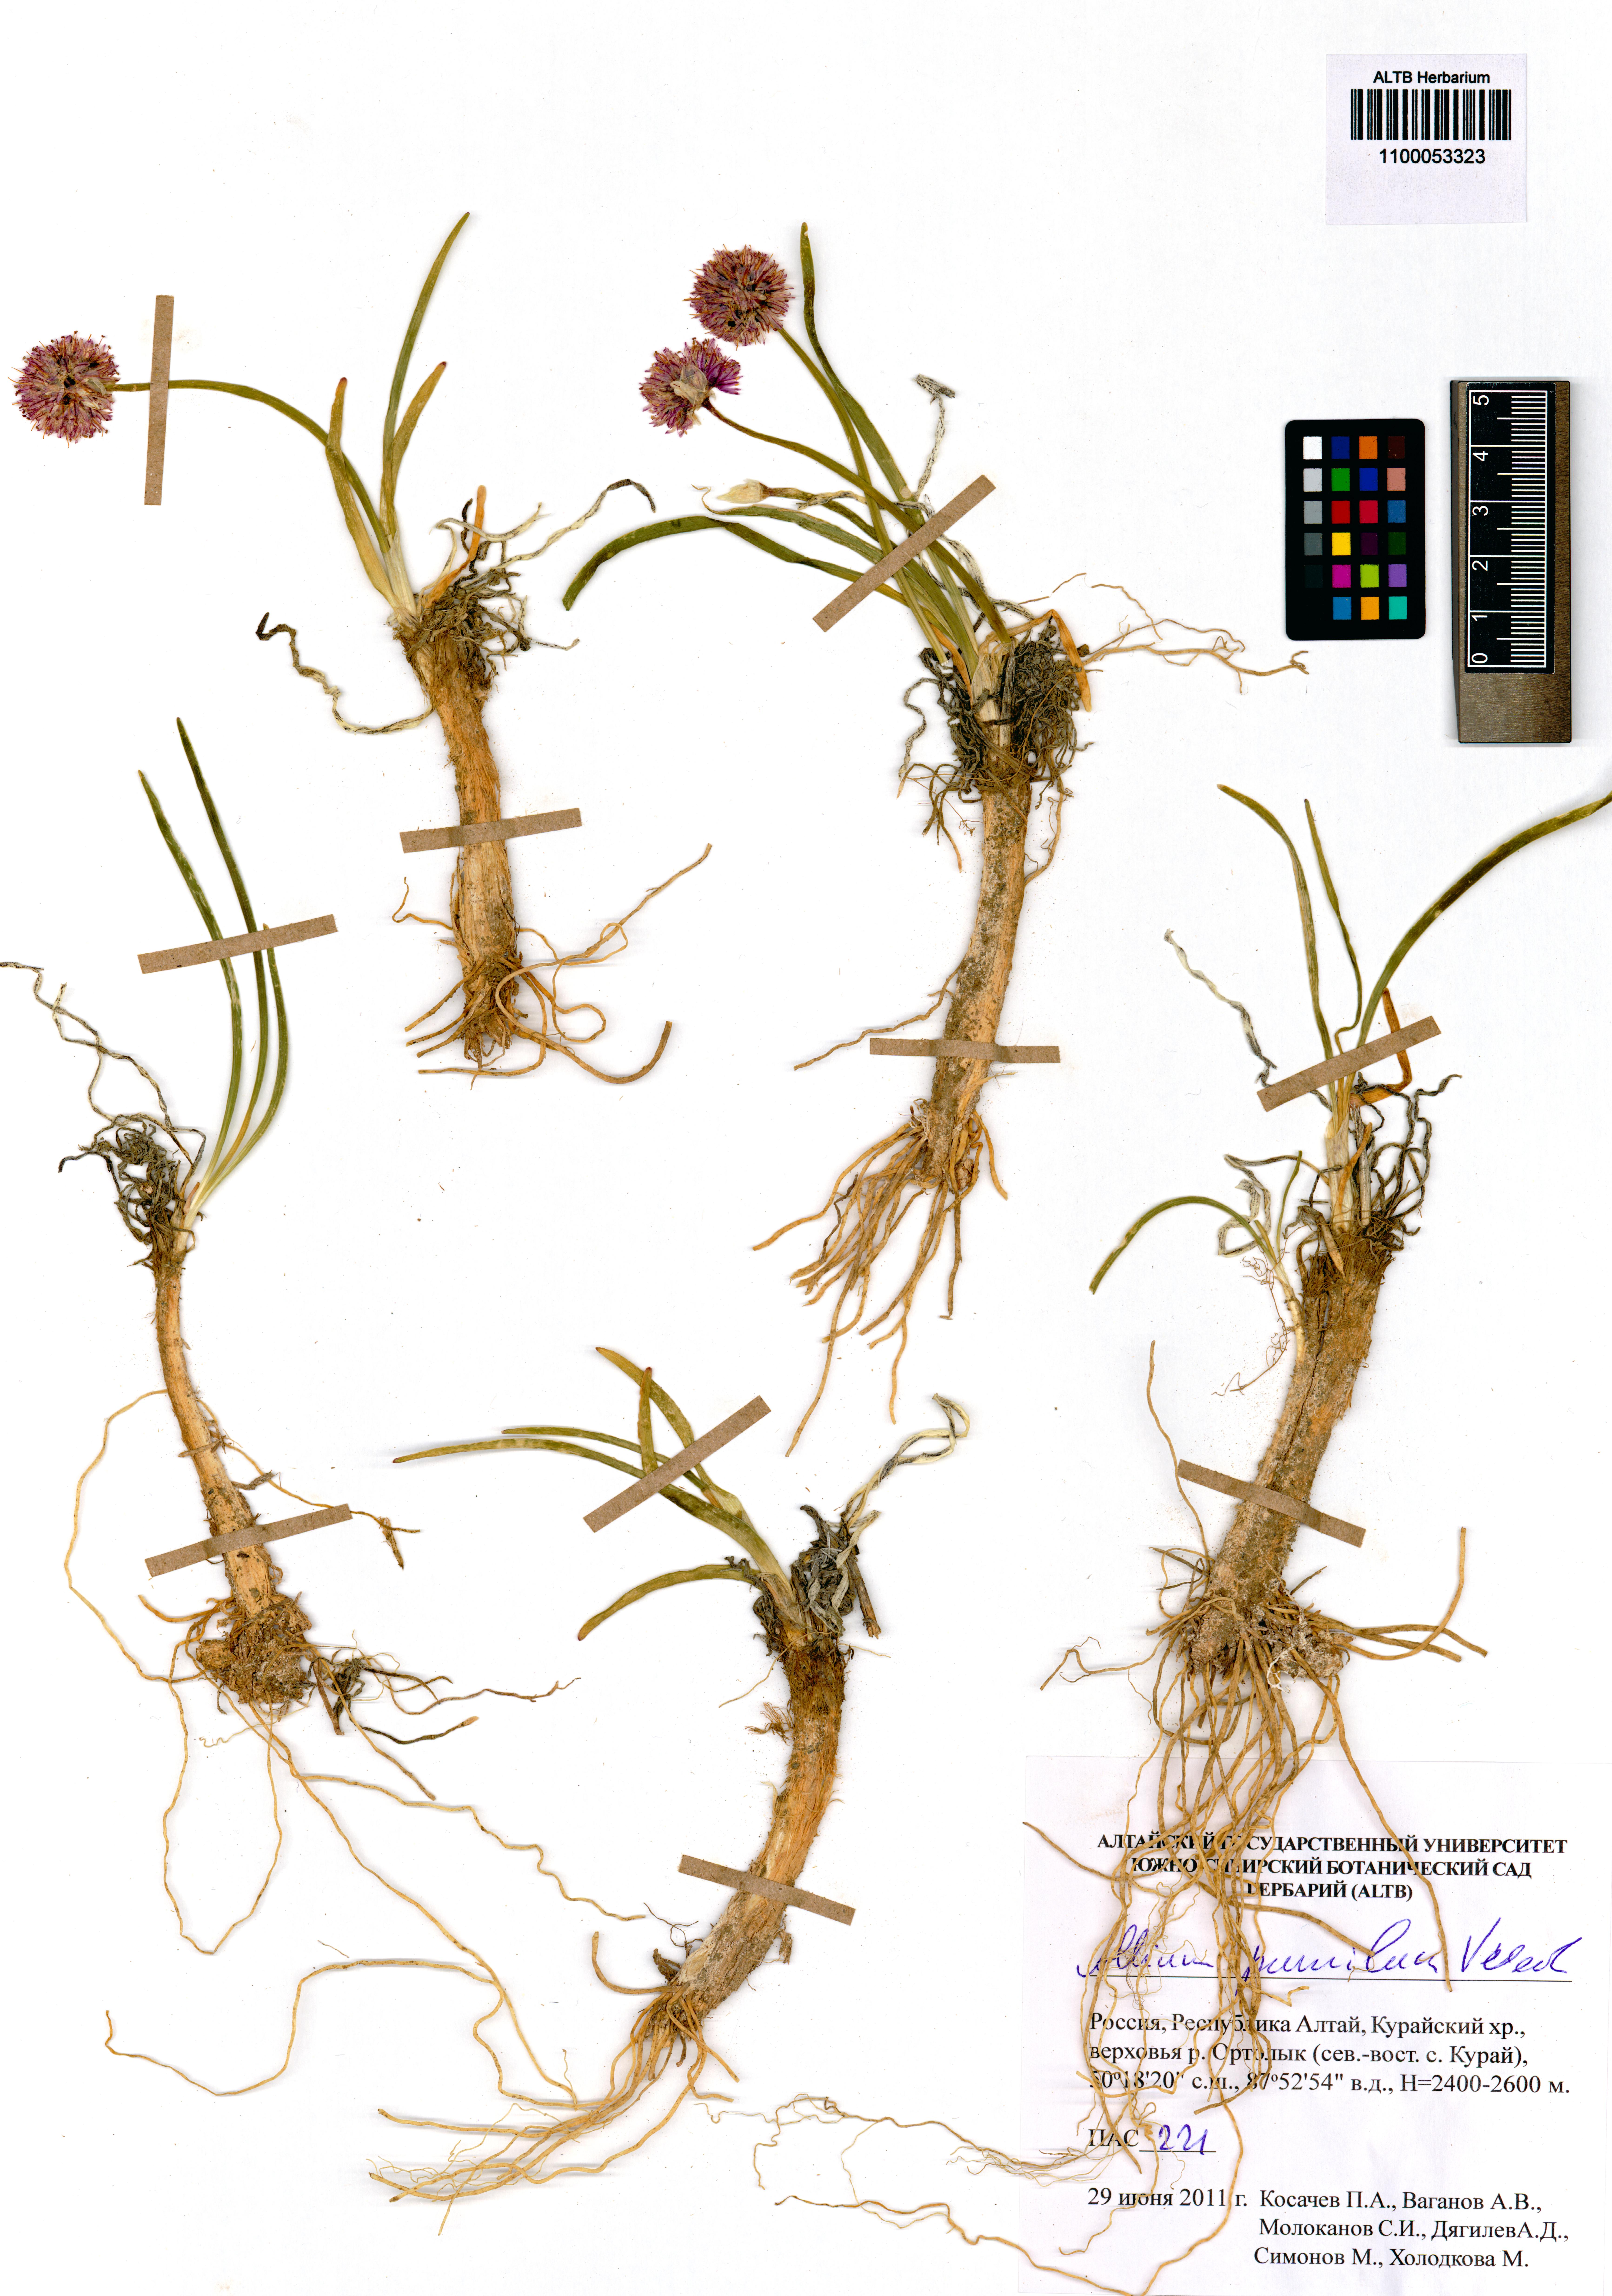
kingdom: Plantae
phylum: Tracheophyta
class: Liliopsida
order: Asparagales
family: Amaryllidaceae
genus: Allium
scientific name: Allium pumilum
